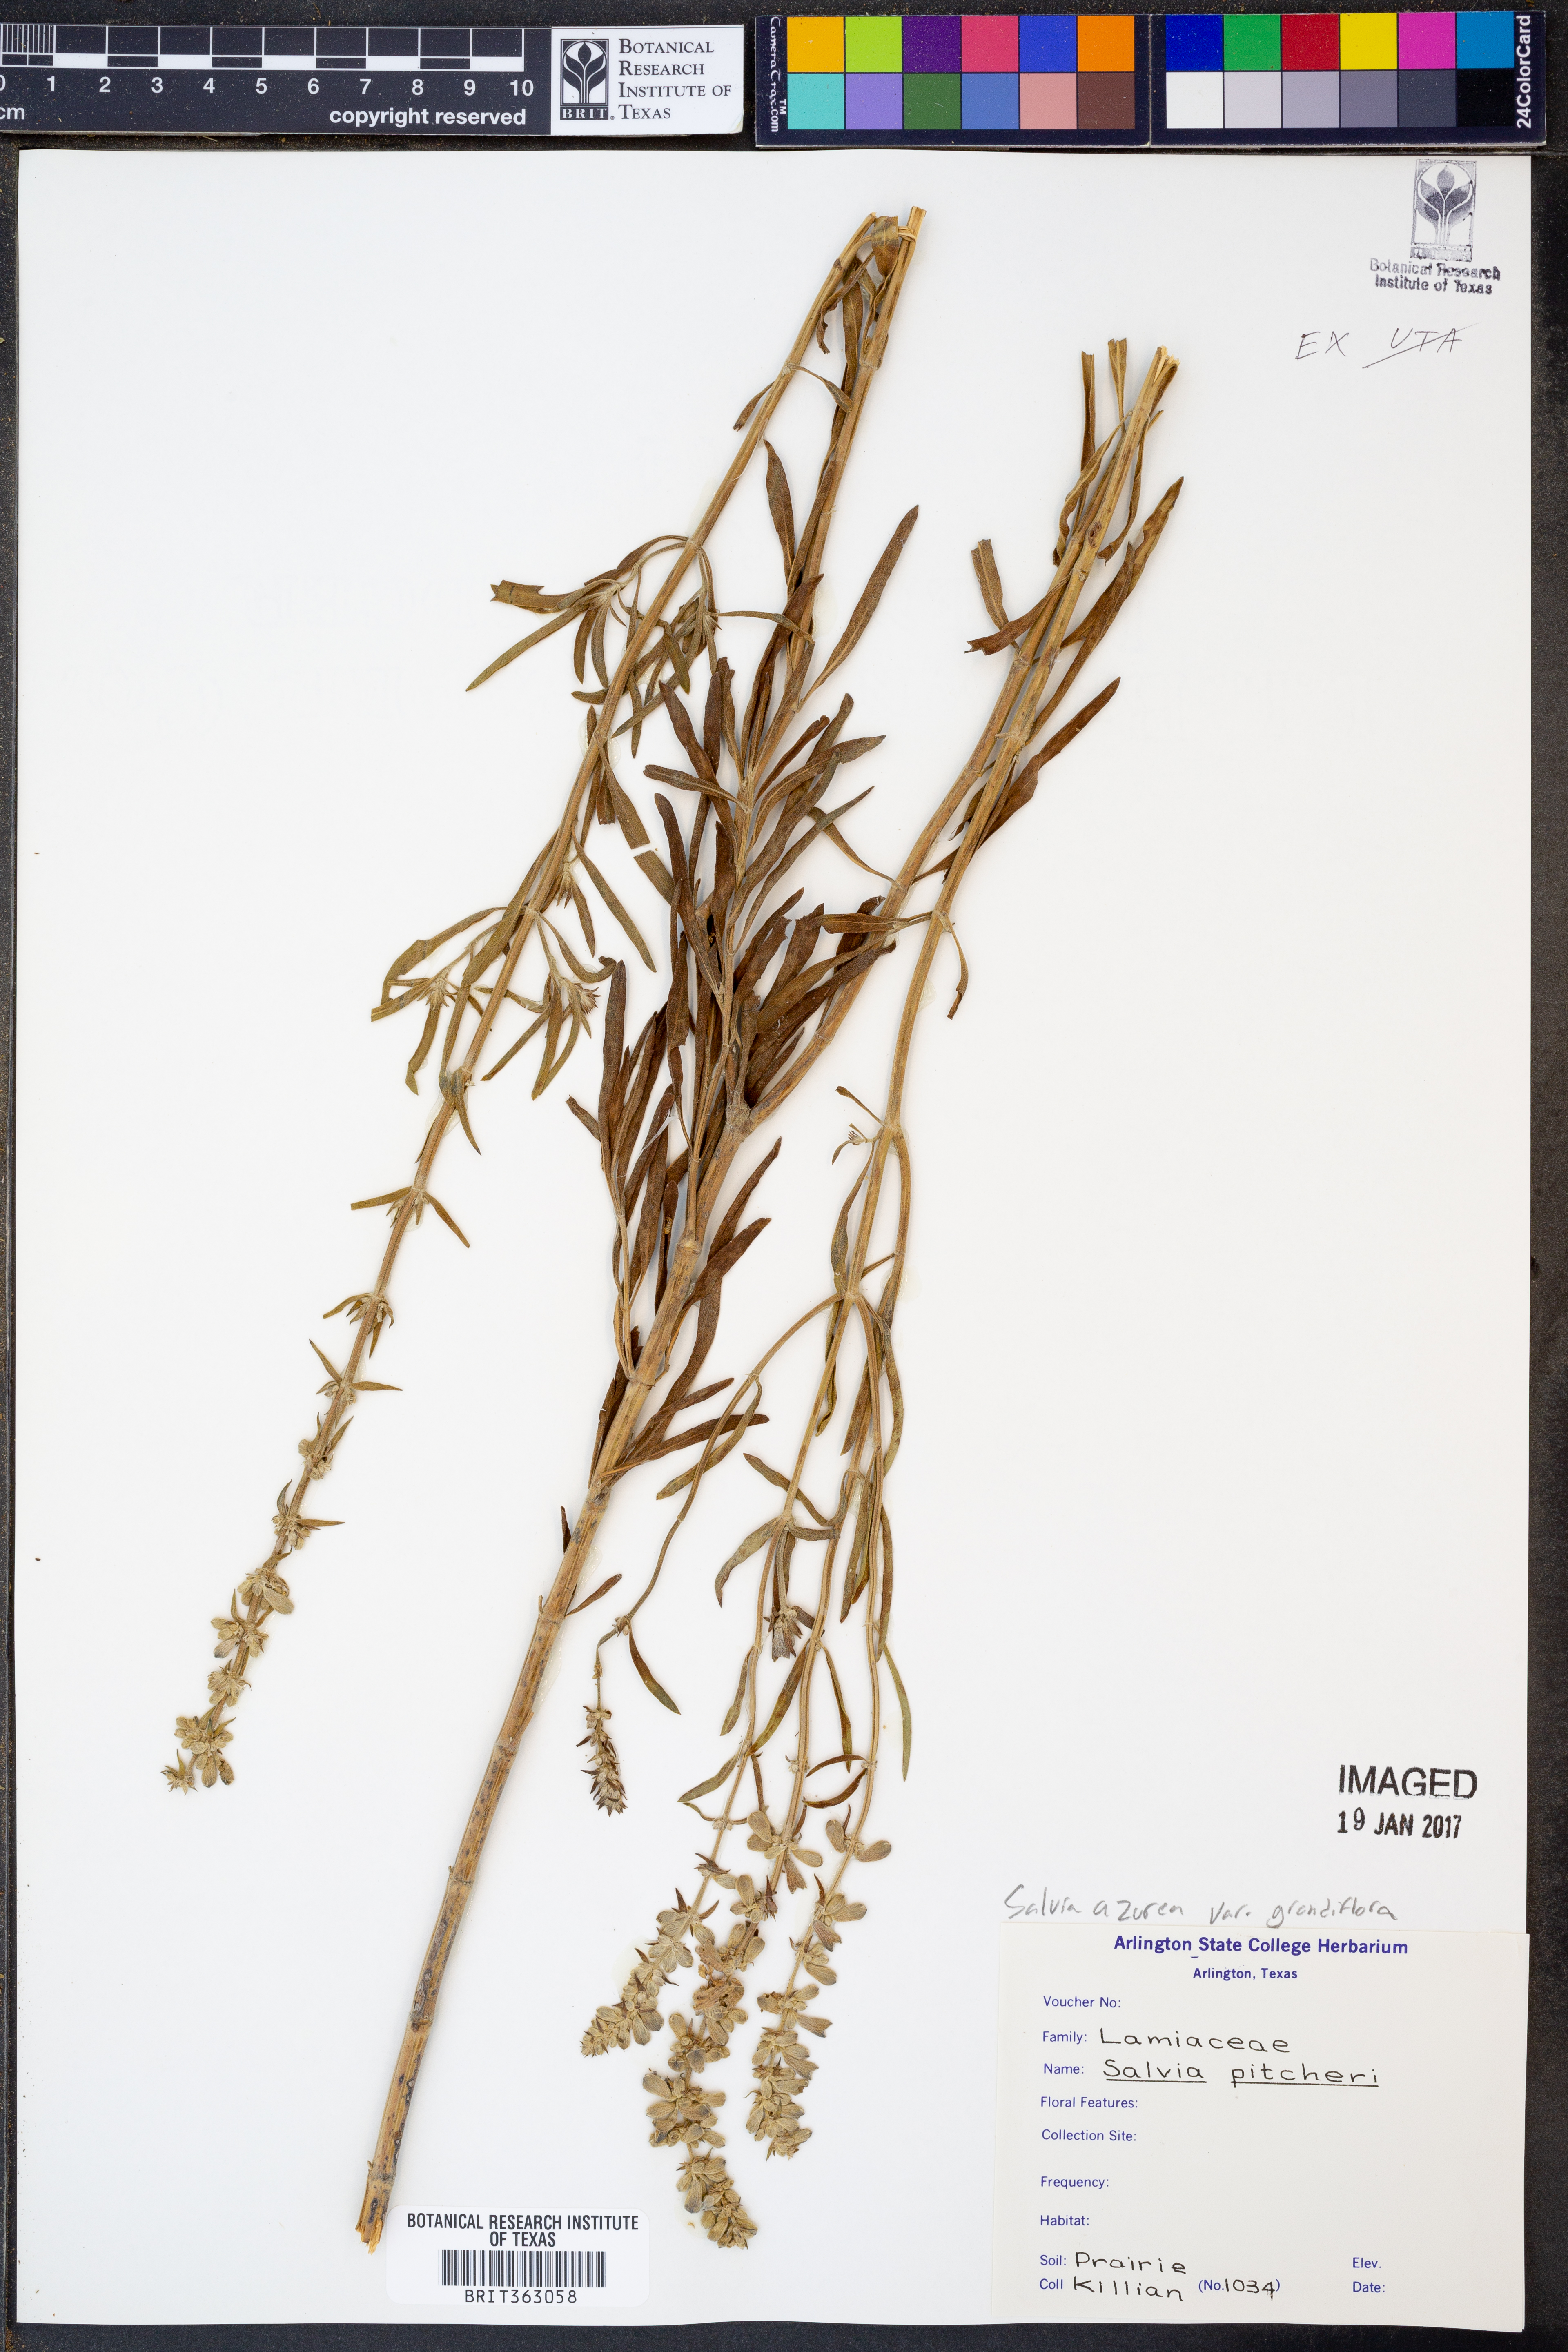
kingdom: Plantae
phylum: Tracheophyta
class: Magnoliopsida
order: Lamiales
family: Lamiaceae
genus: Salvia
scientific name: Salvia azurea
